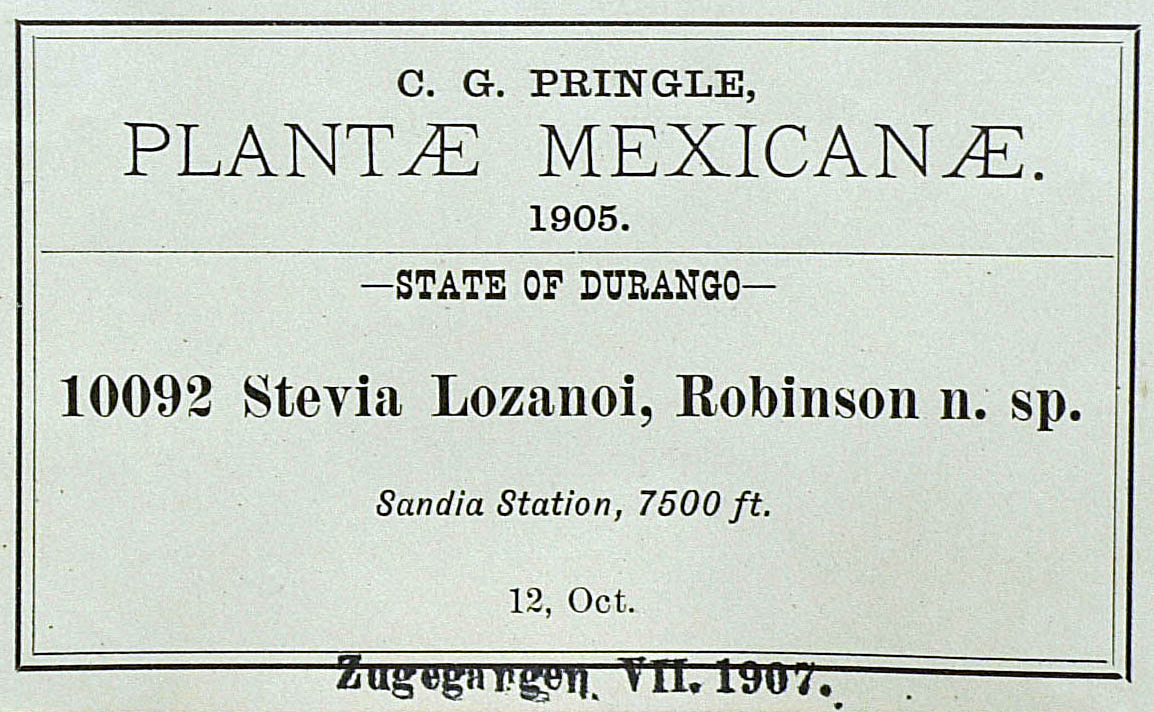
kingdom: Plantae
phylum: Tracheophyta
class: Magnoliopsida
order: Asterales
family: Asteraceae
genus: Stevia
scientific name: Stevia viscida
